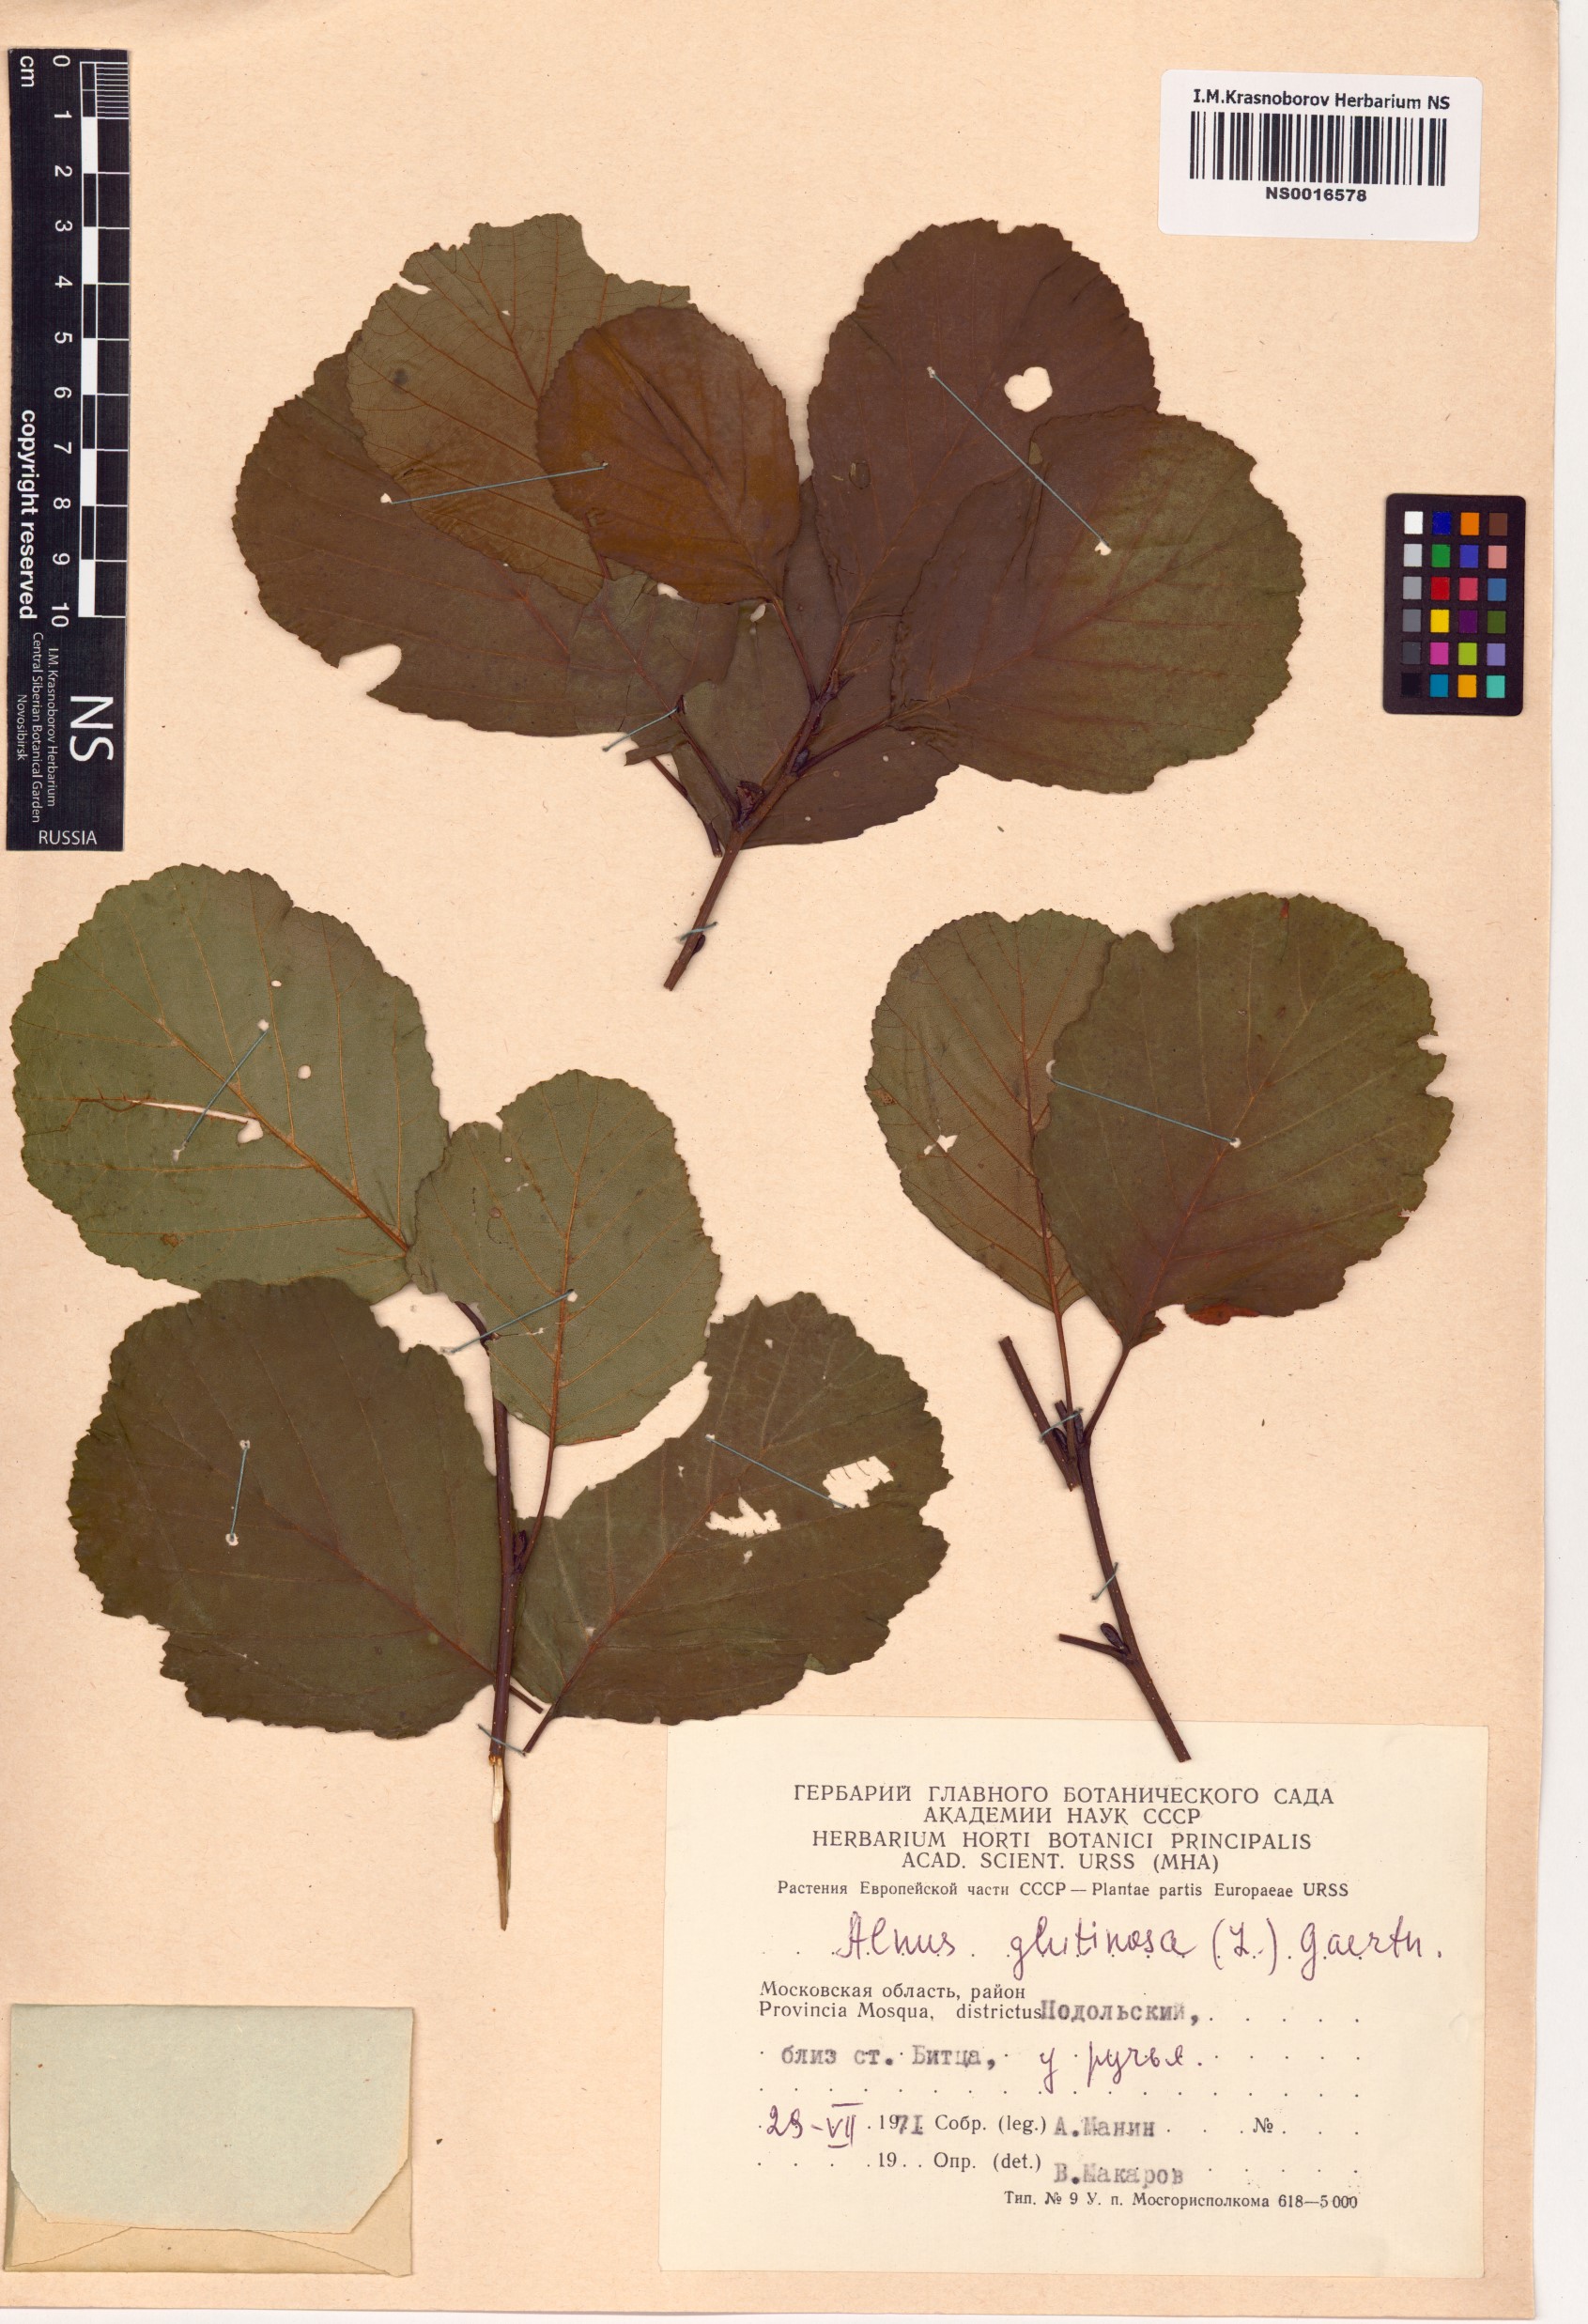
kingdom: Plantae
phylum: Tracheophyta
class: Magnoliopsida
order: Fagales
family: Betulaceae
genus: Alnus
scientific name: Alnus glutinosa
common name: Black alder
